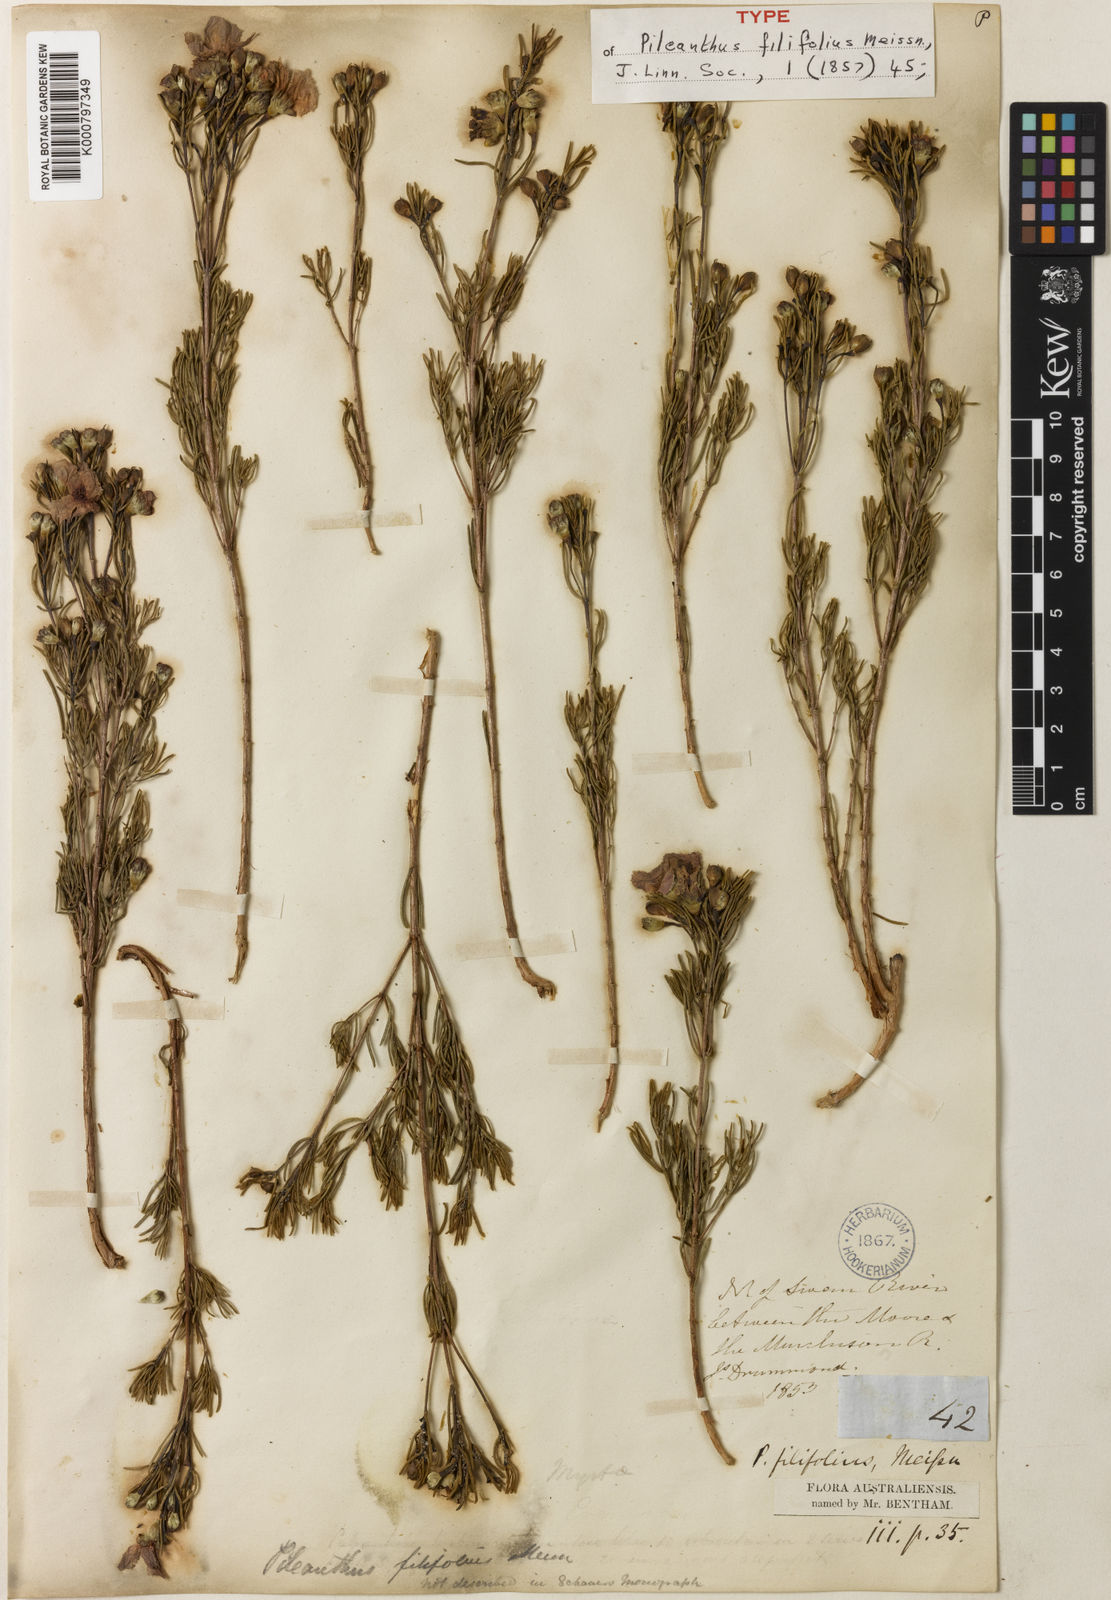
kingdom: Plantae
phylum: Tracheophyta
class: Magnoliopsida
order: Myrtales
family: Myrtaceae
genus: Pileanthus
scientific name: Pileanthus filifolius
